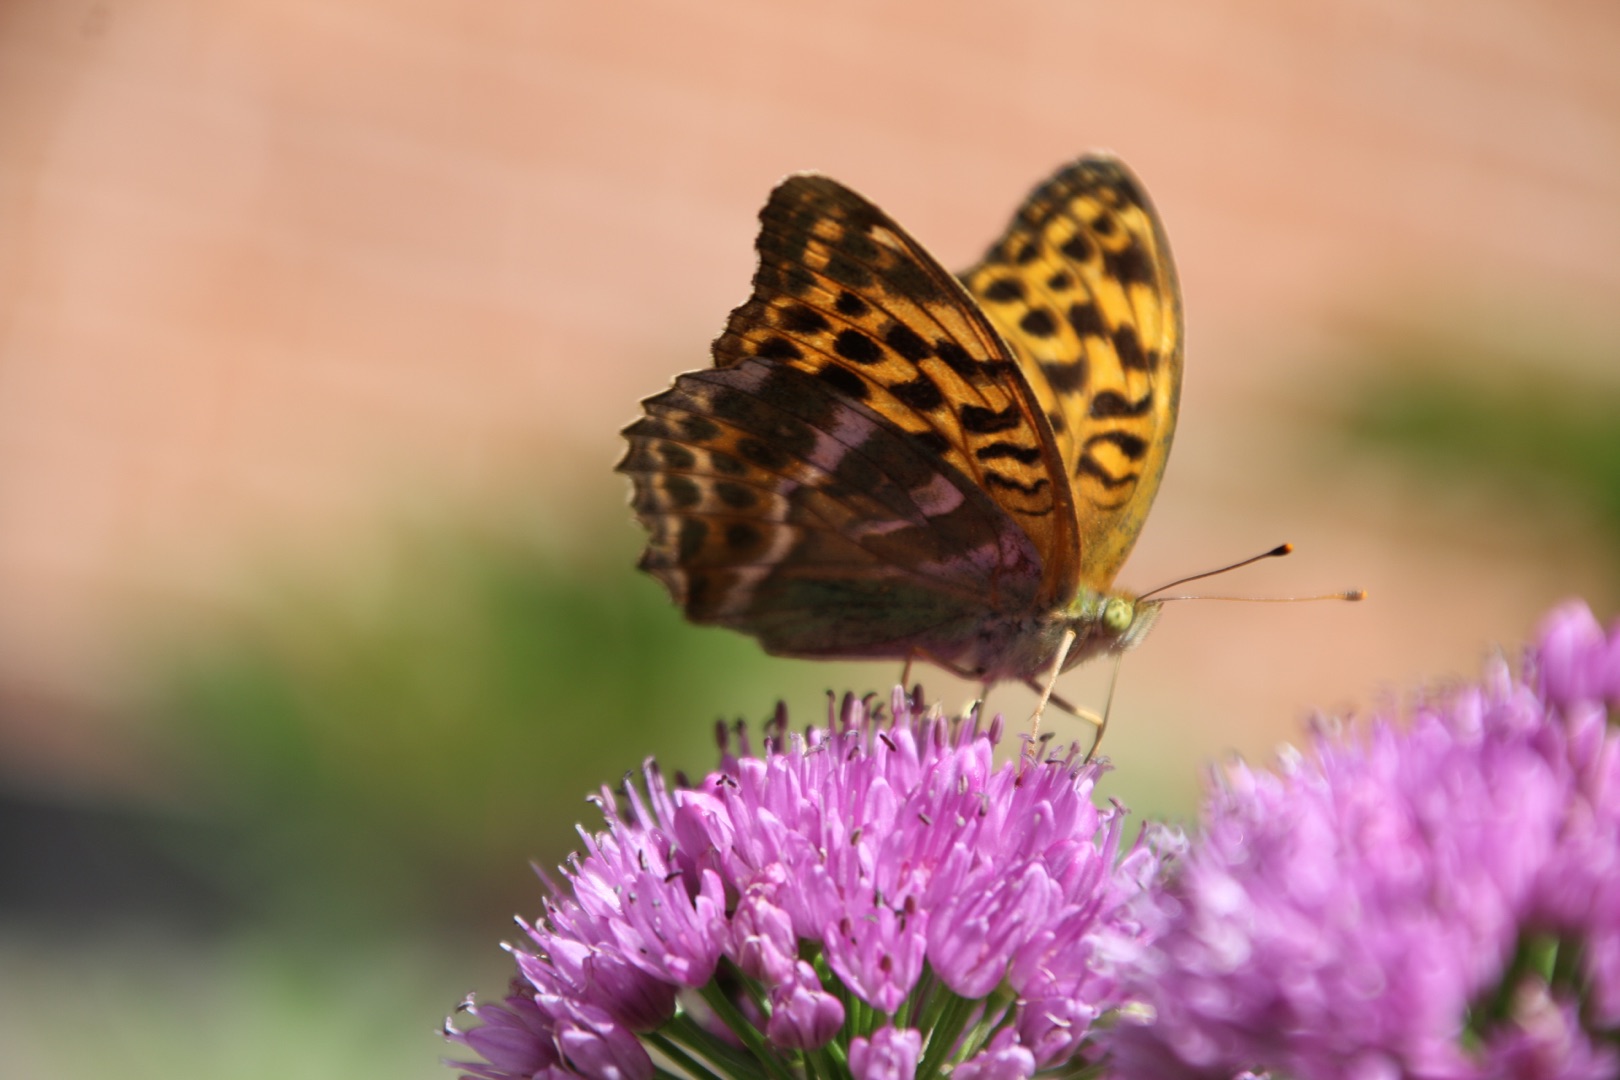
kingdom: Animalia
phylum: Arthropoda
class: Insecta
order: Lepidoptera
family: Nymphalidae
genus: Argynnis
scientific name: Argynnis paphia
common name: Kejserkåbe
